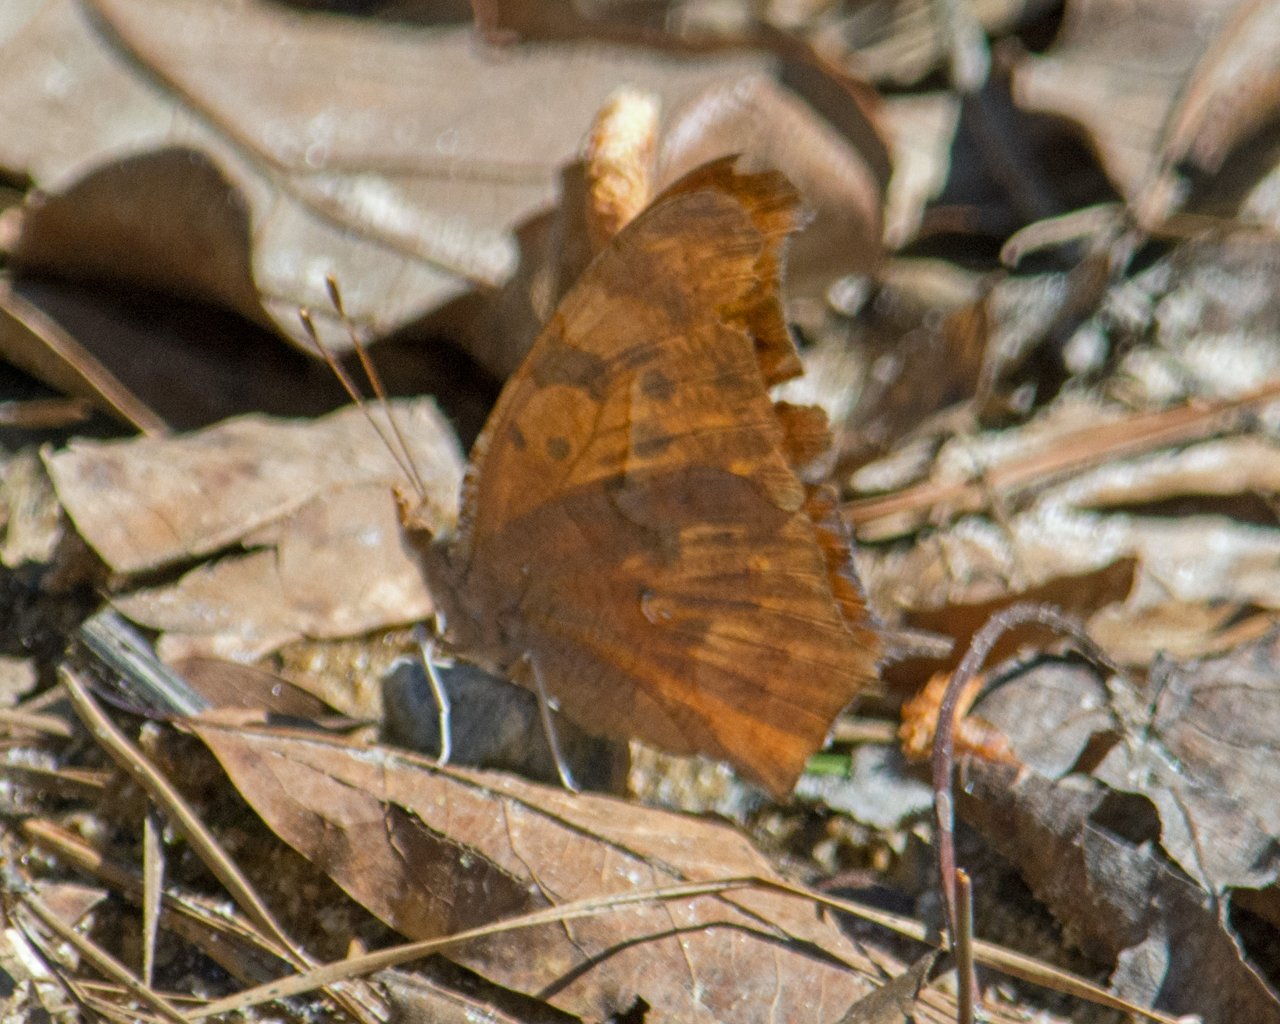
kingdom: Animalia
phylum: Arthropoda
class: Insecta
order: Lepidoptera
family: Nymphalidae
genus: Polygonia
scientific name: Polygonia interrogationis
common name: Question Mark
